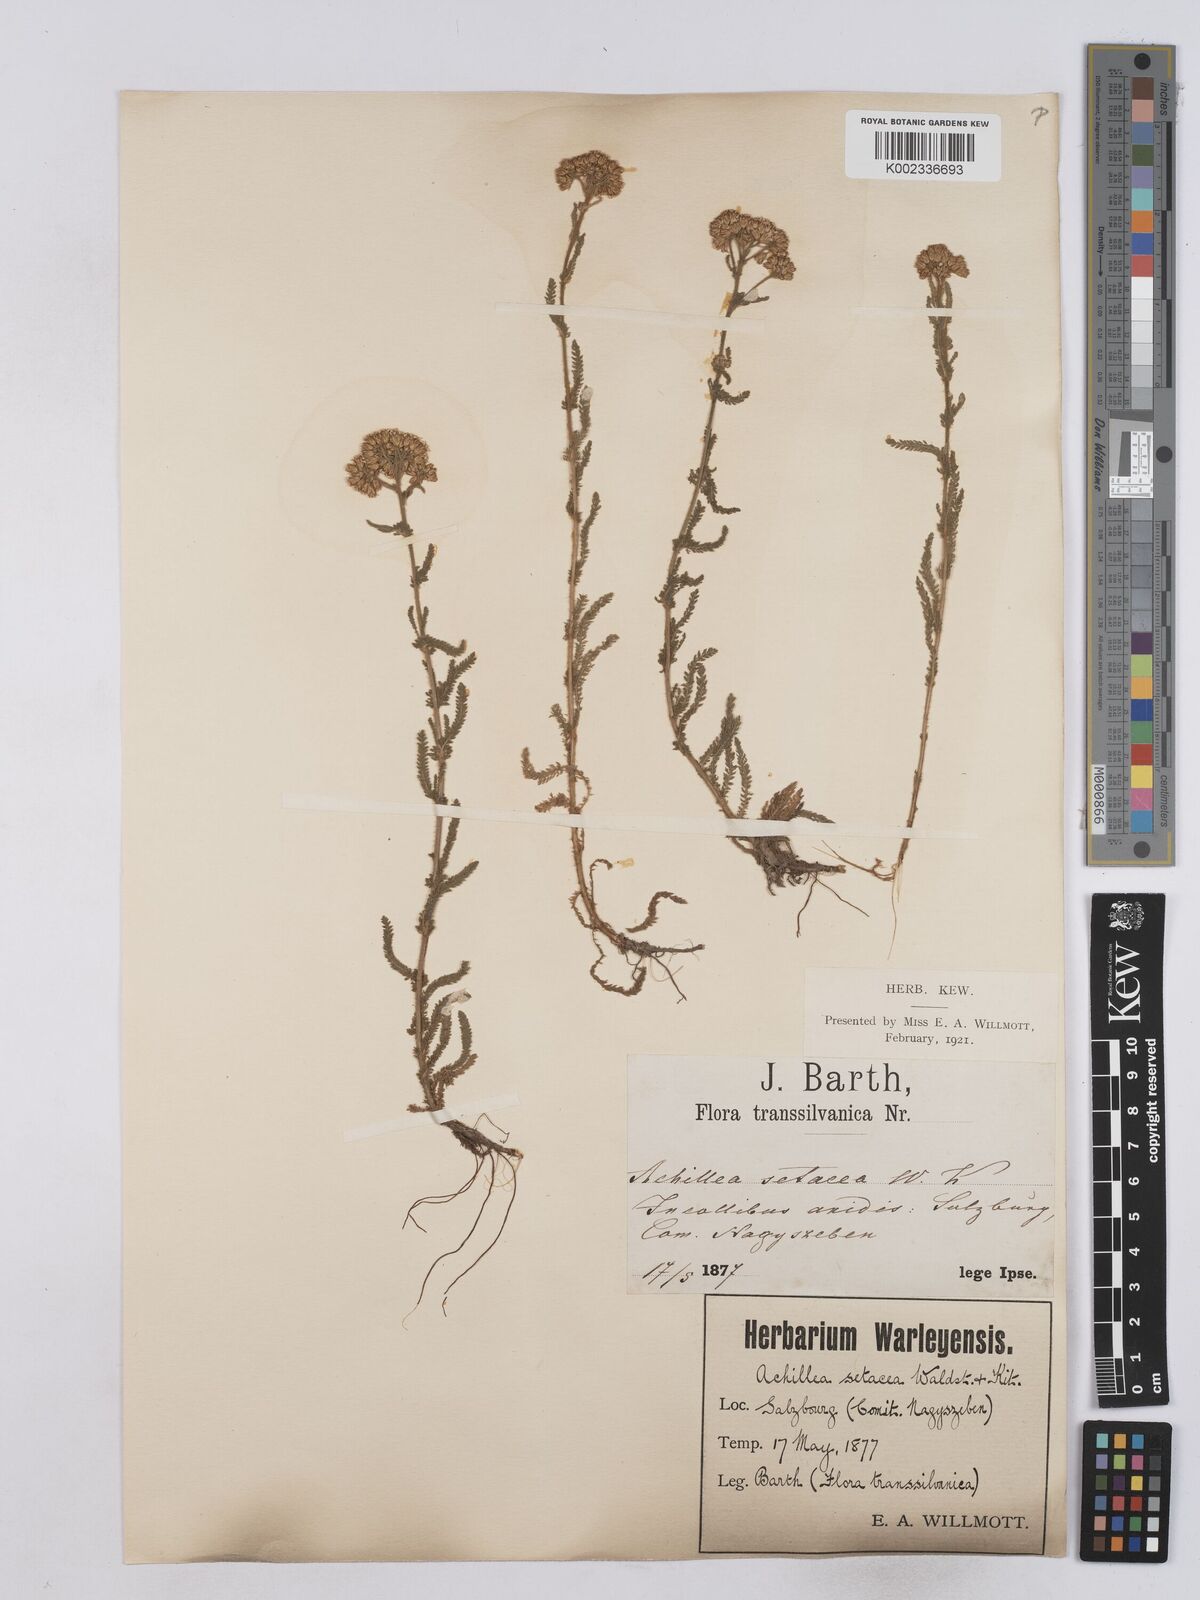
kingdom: Plantae
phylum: Tracheophyta
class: Magnoliopsida
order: Asterales
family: Asteraceae
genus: Achillea
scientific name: Achillea setacea
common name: Bristly yarrow
